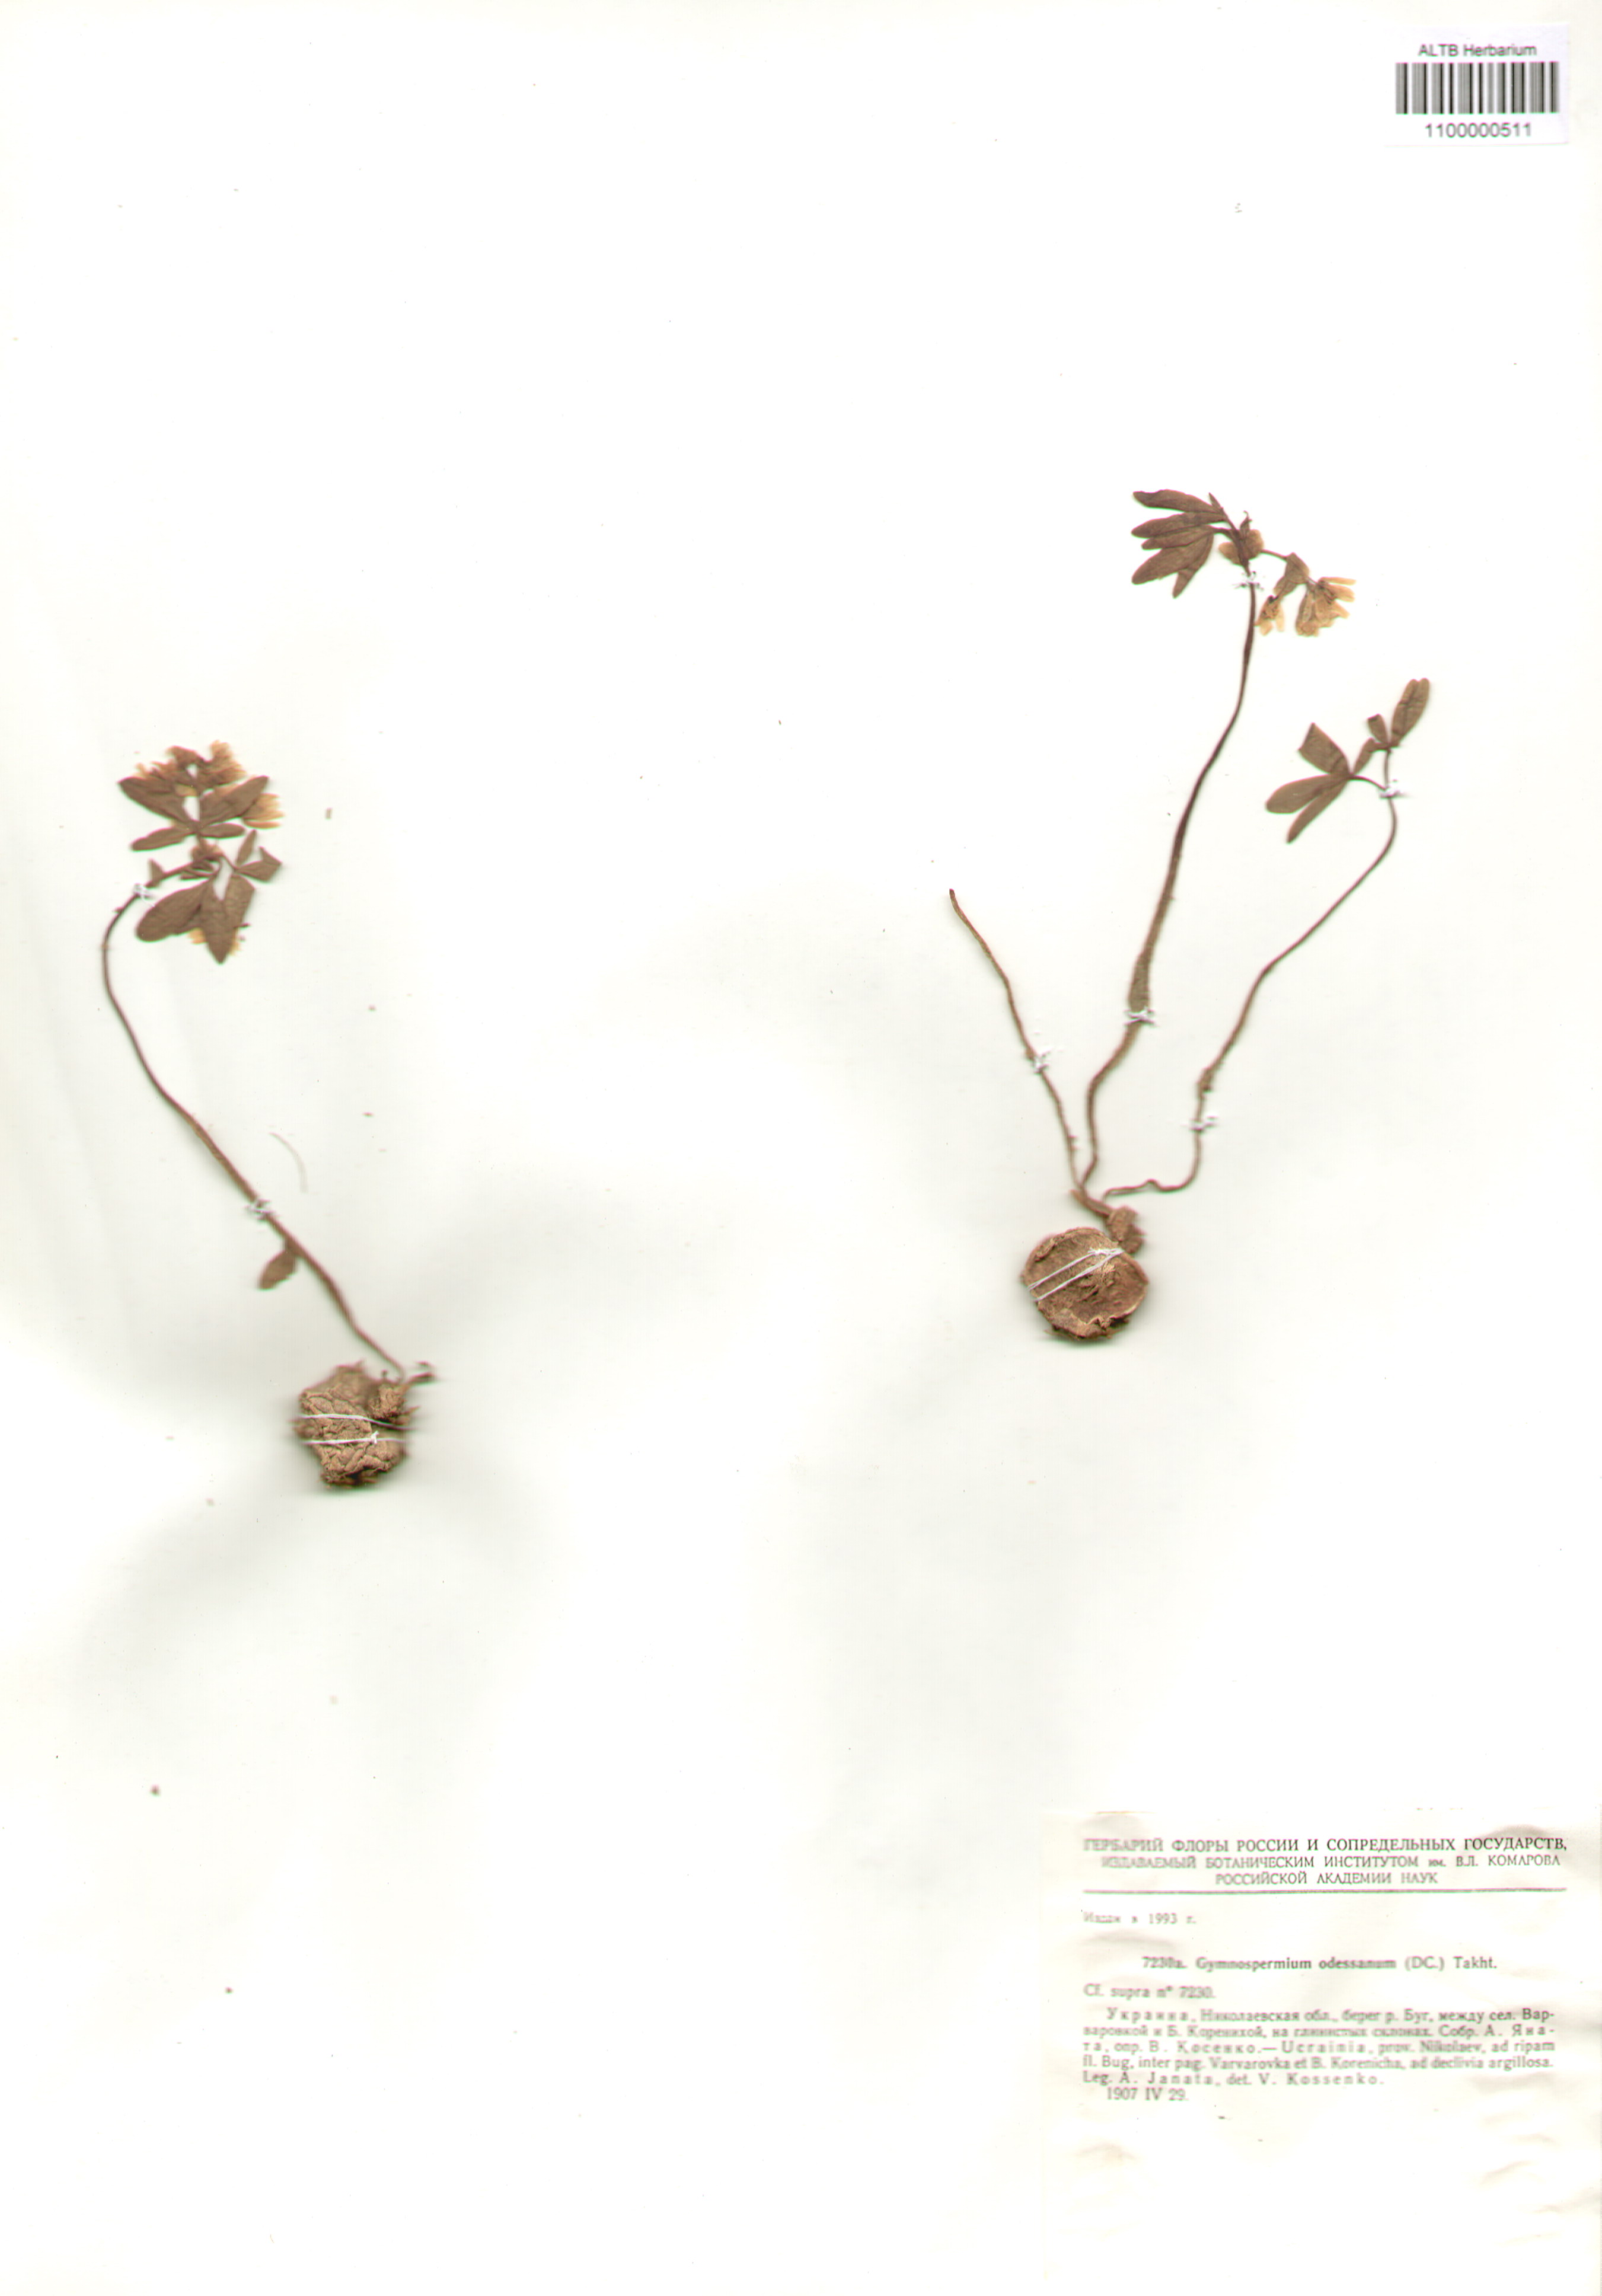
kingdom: Plantae
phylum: Tracheophyta
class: Magnoliopsida
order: Ranunculales
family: Berberidaceae
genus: Gymnospermium
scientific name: Gymnospermium odessanum
